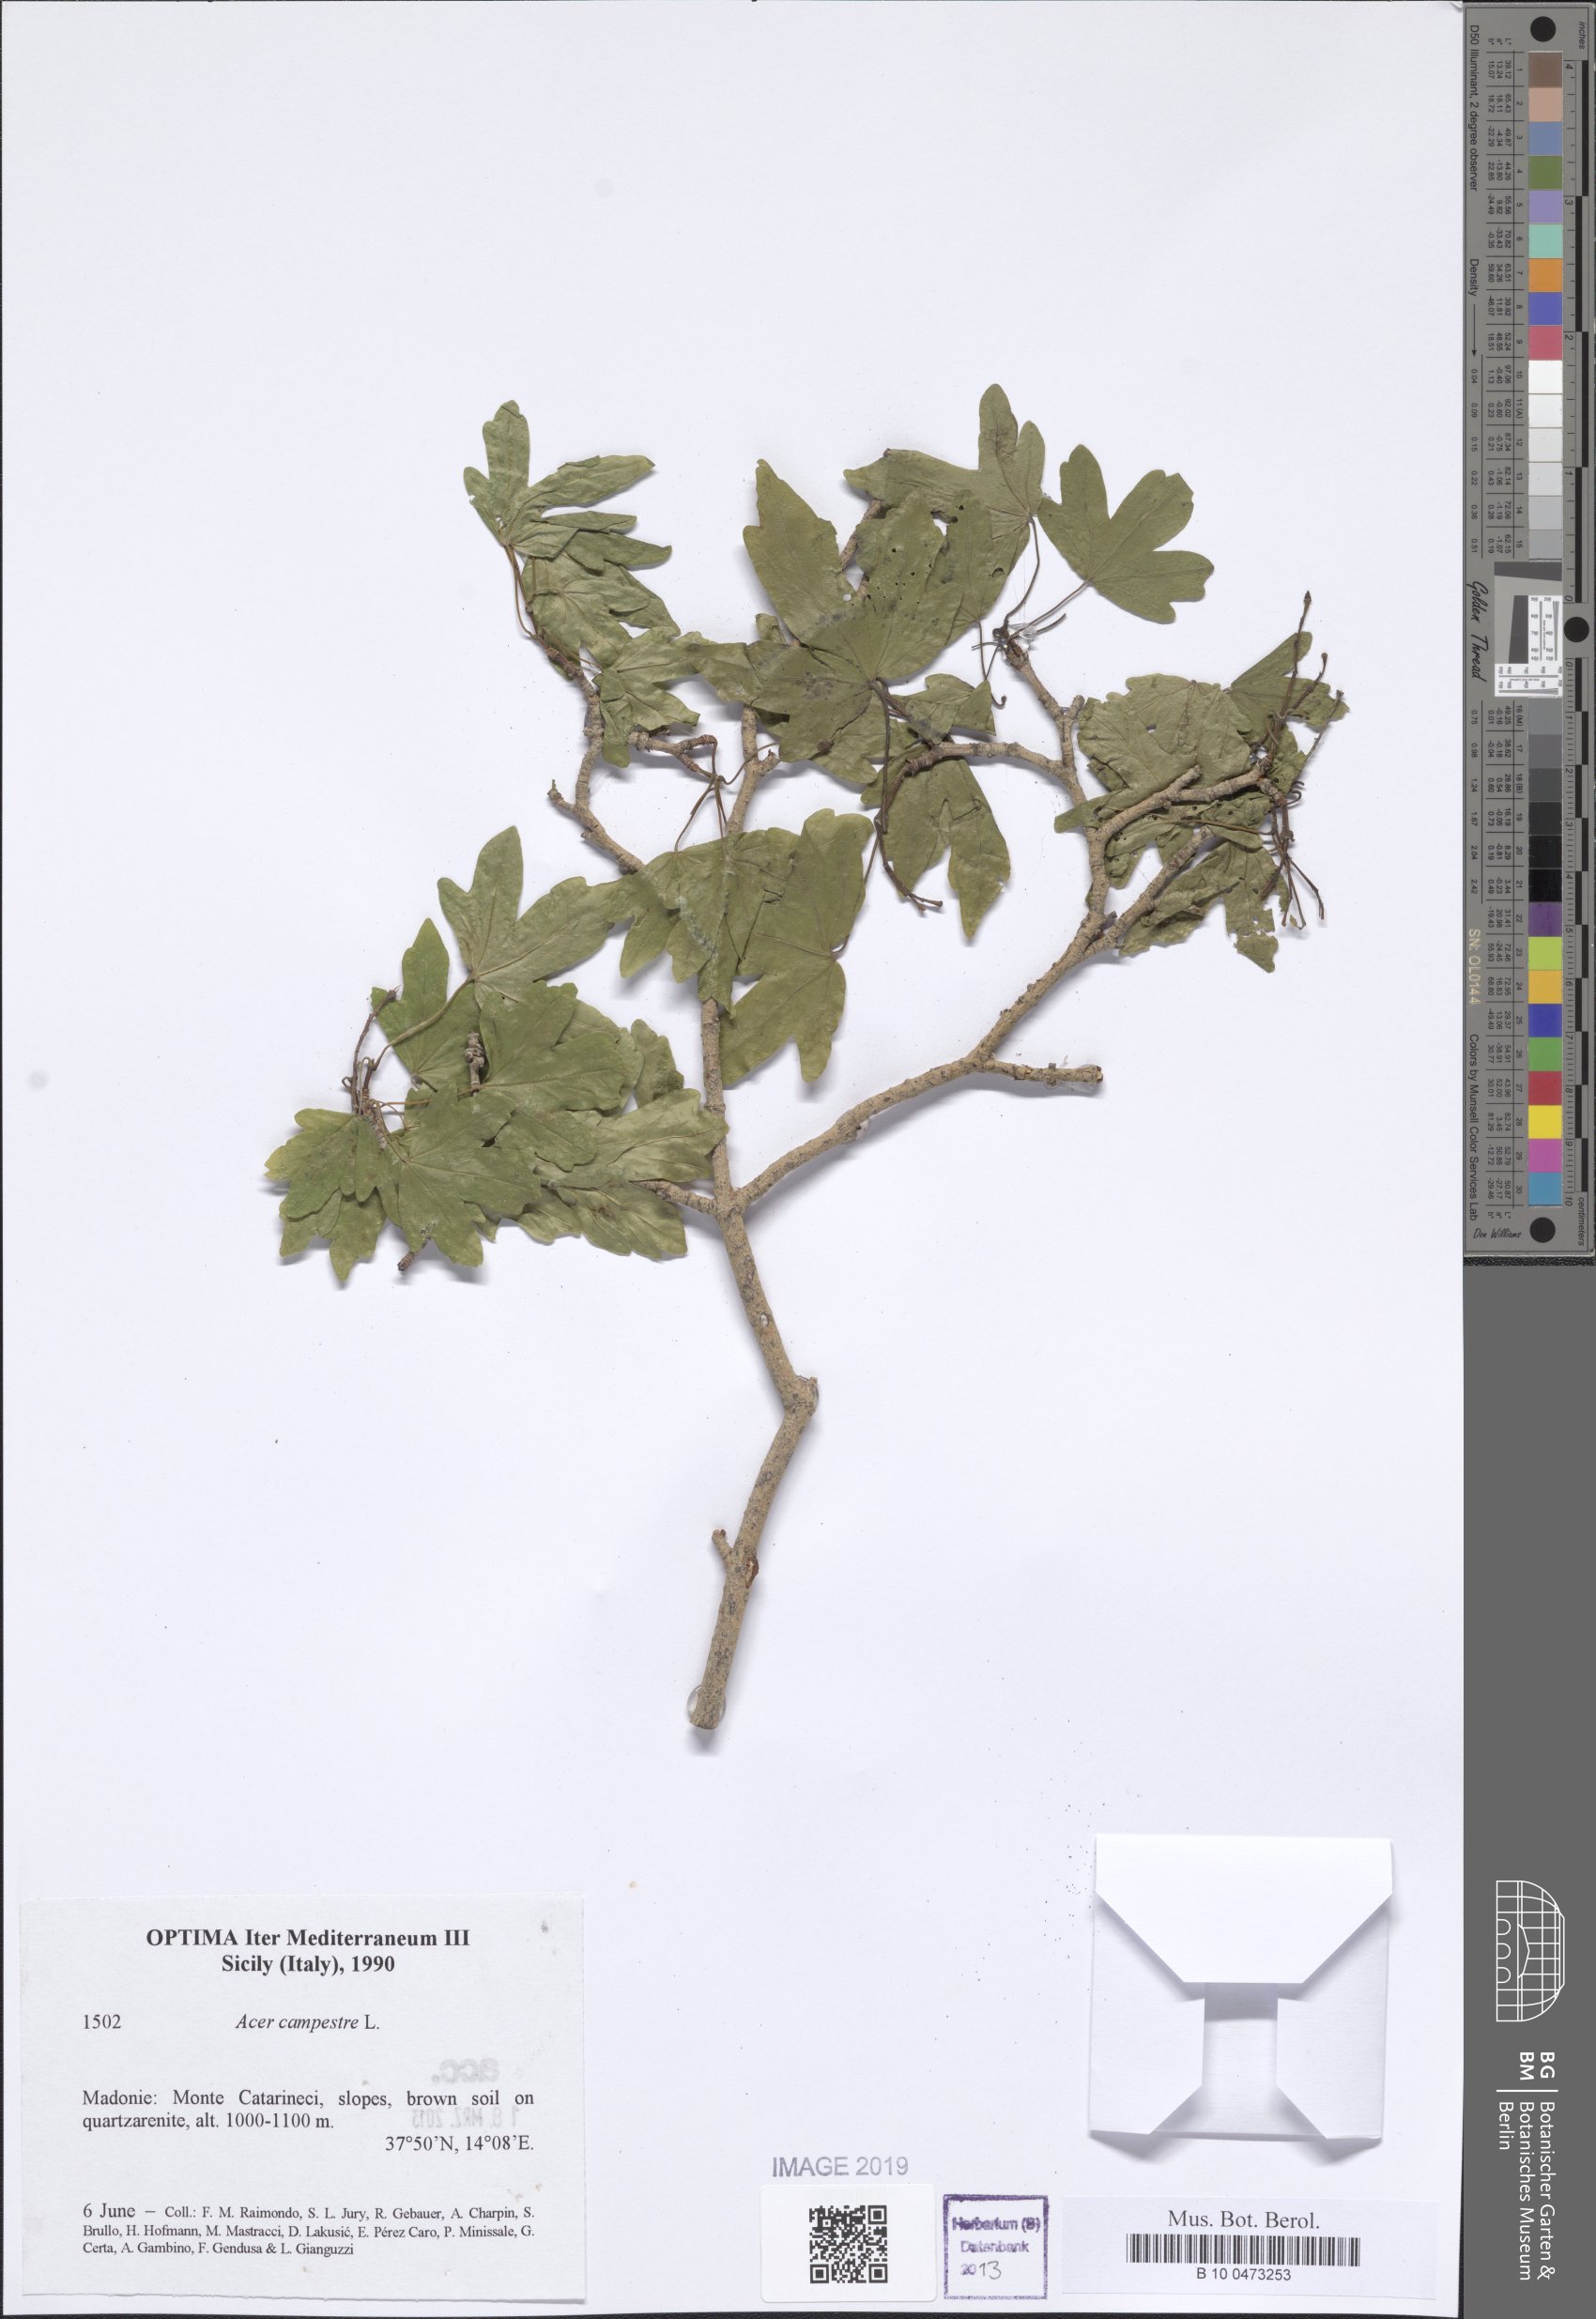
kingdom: Plantae
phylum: Tracheophyta
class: Magnoliopsida
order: Sapindales
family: Sapindaceae
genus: Acer
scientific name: Acer campestre
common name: Field maple
